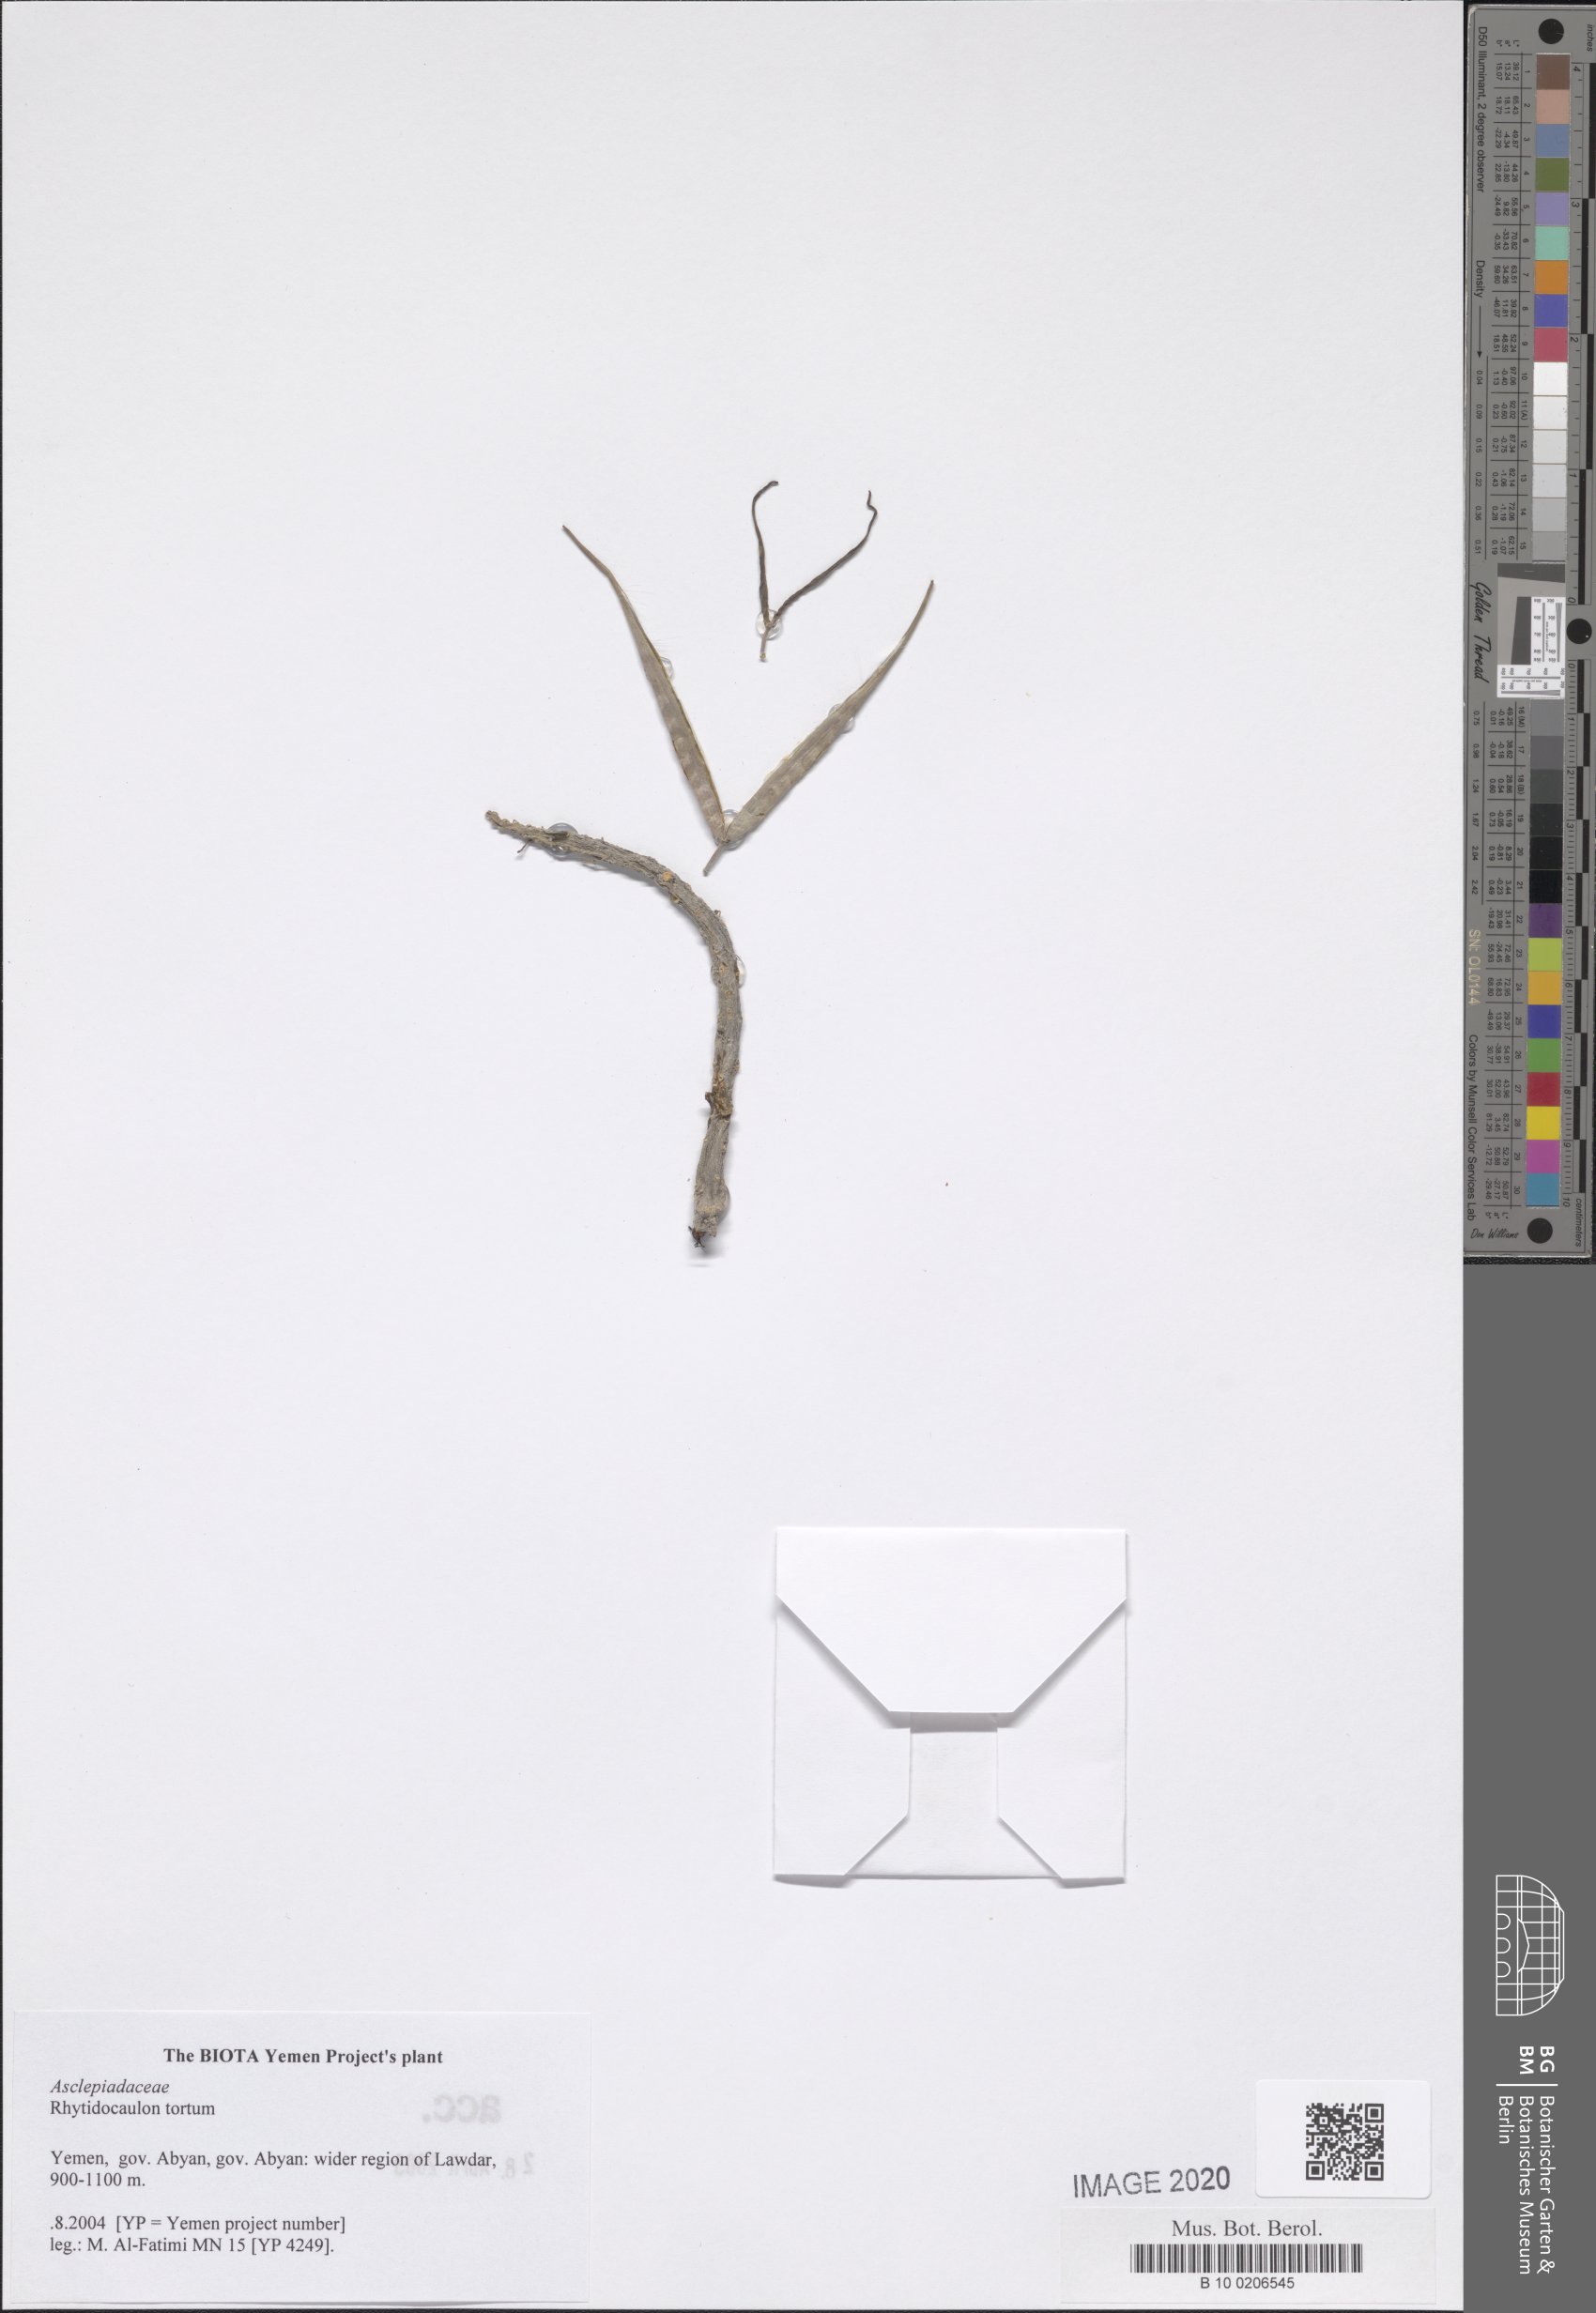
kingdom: Plantae
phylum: Tracheophyta
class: Magnoliopsida
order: Gentianales
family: Apocynaceae
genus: Ceropegia
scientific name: Ceropegia torta
